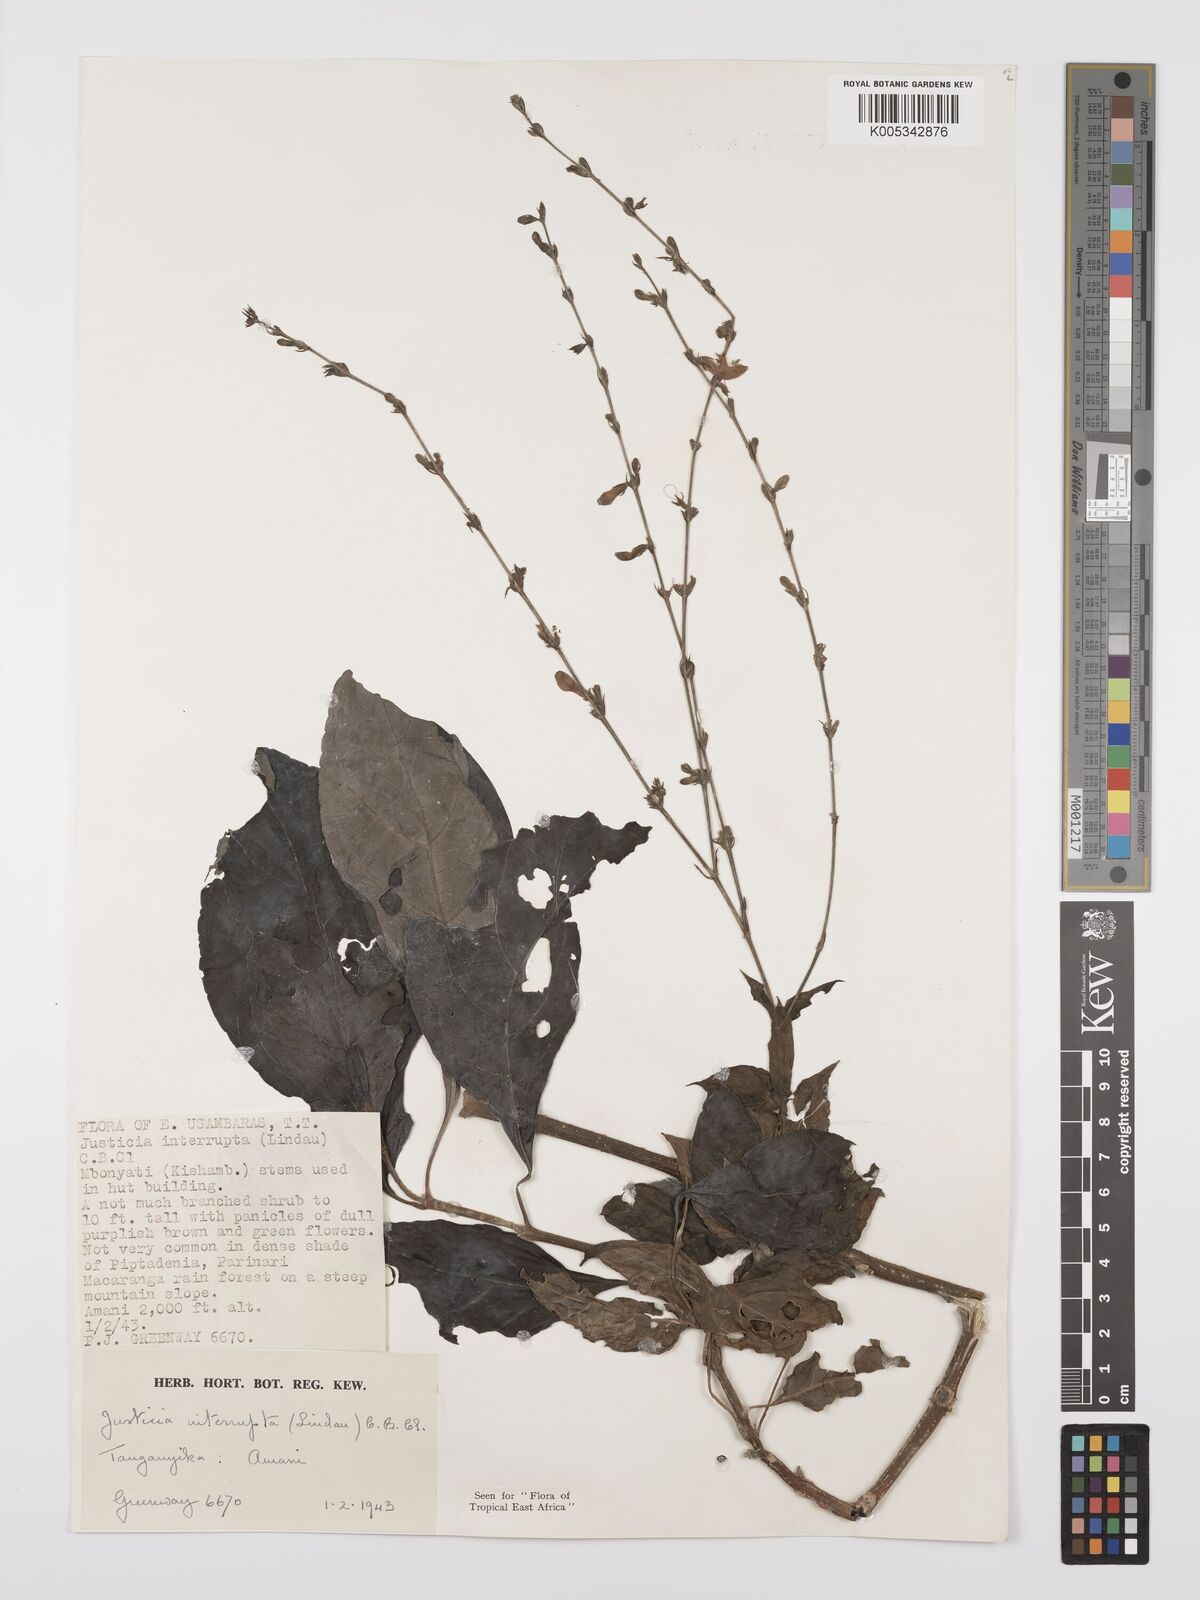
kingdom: Plantae
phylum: Tracheophyta
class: Magnoliopsida
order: Lamiales
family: Acanthaceae
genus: Justicia
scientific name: Justicia plectranthoides
